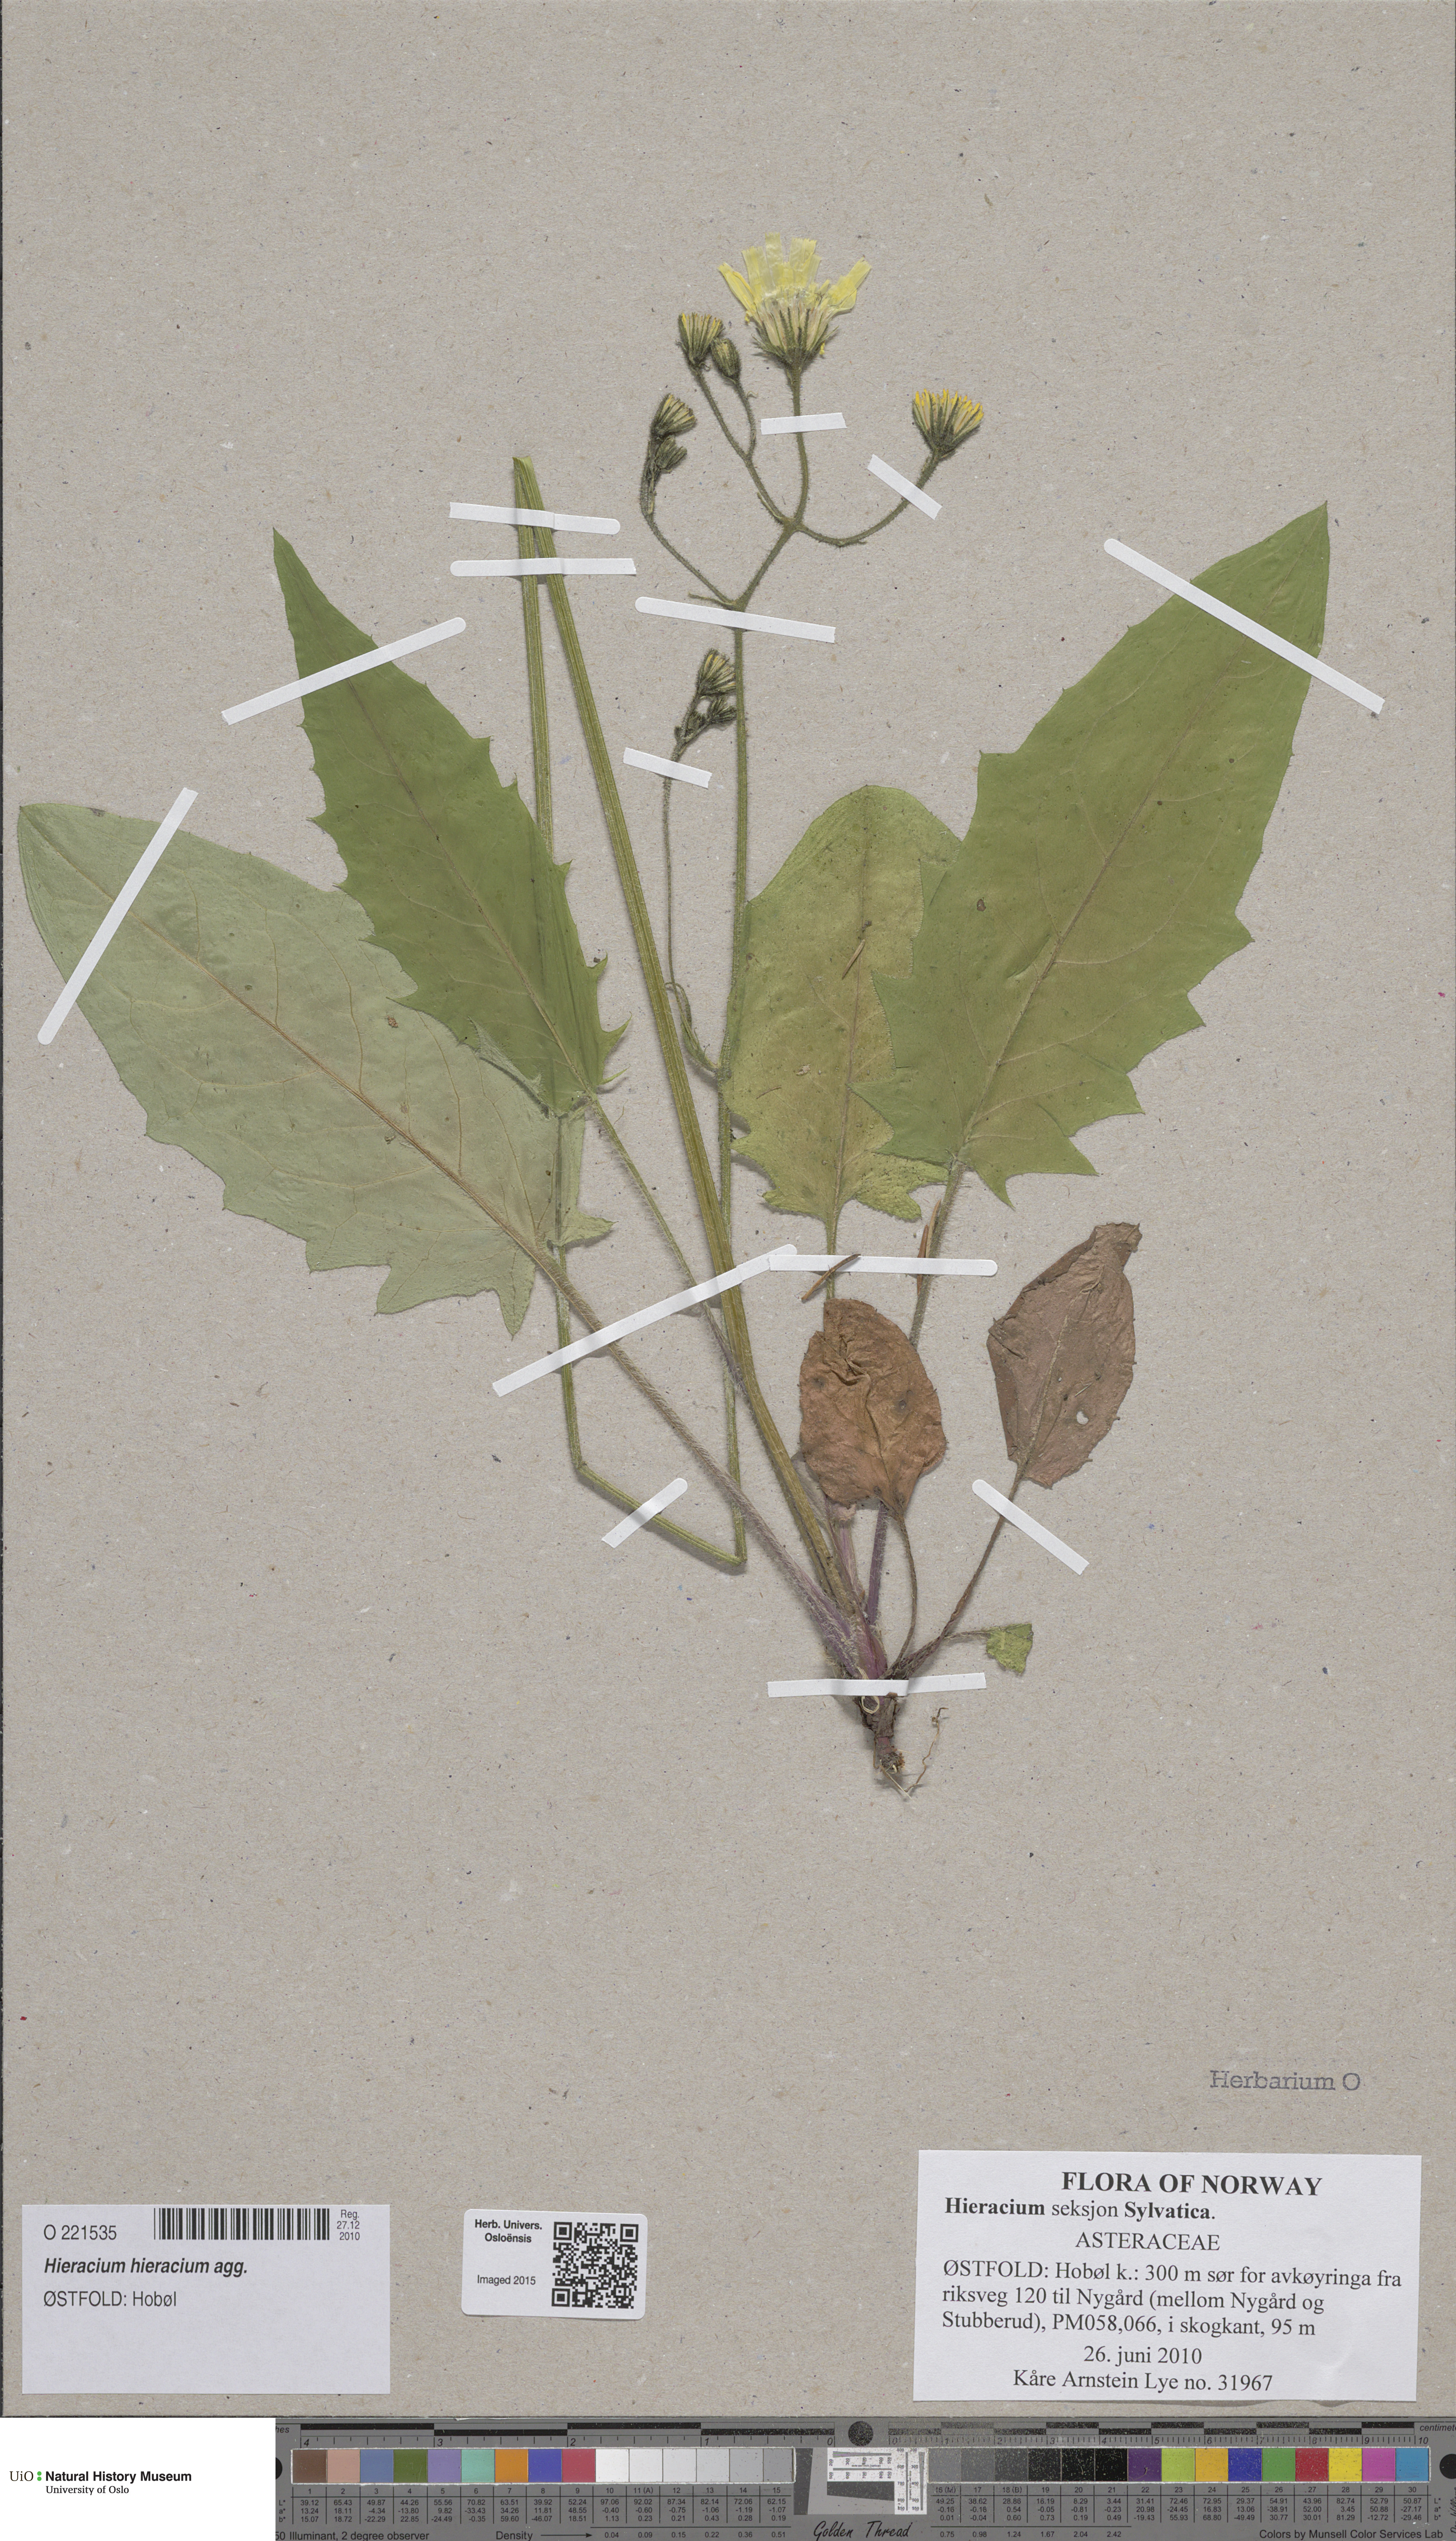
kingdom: Plantae
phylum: Tracheophyta
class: Magnoliopsida
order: Asterales
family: Asteraceae
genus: Hieracium
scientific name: Hieracium
